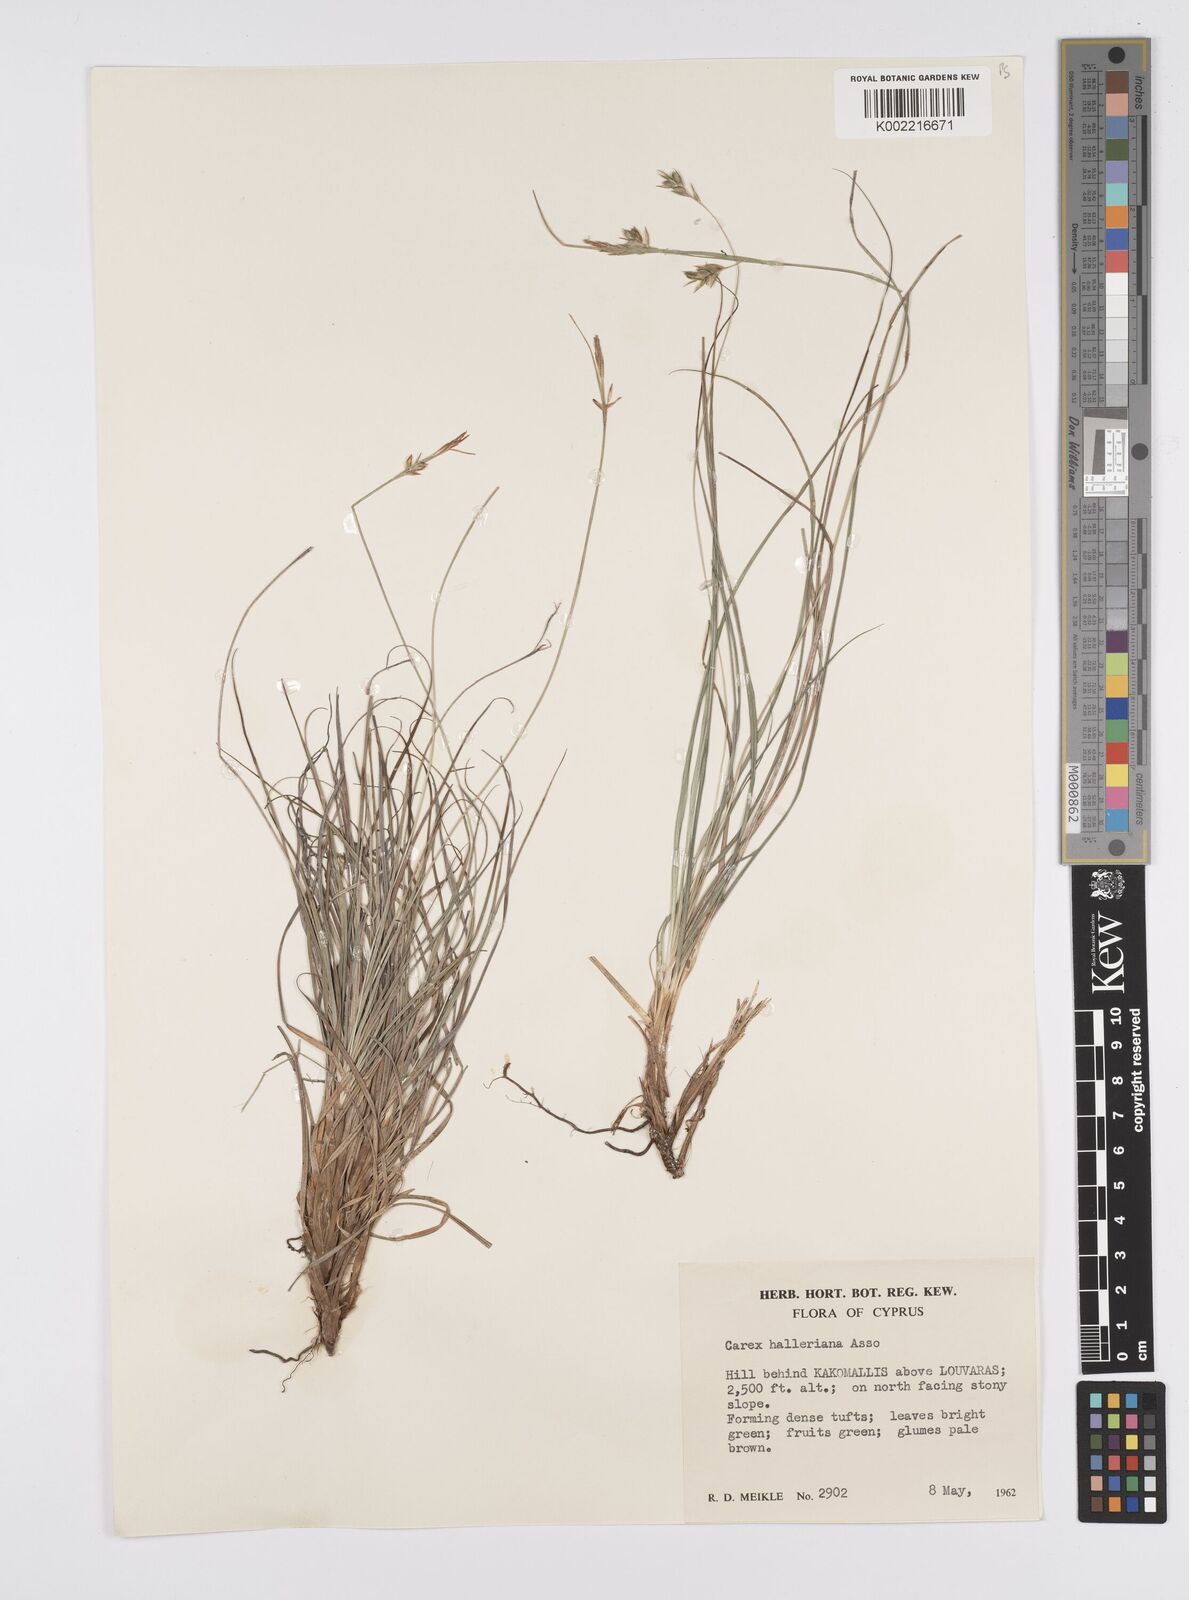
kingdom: Plantae
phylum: Tracheophyta
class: Liliopsida
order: Poales
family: Cyperaceae
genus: Carex
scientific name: Carex halleriana
